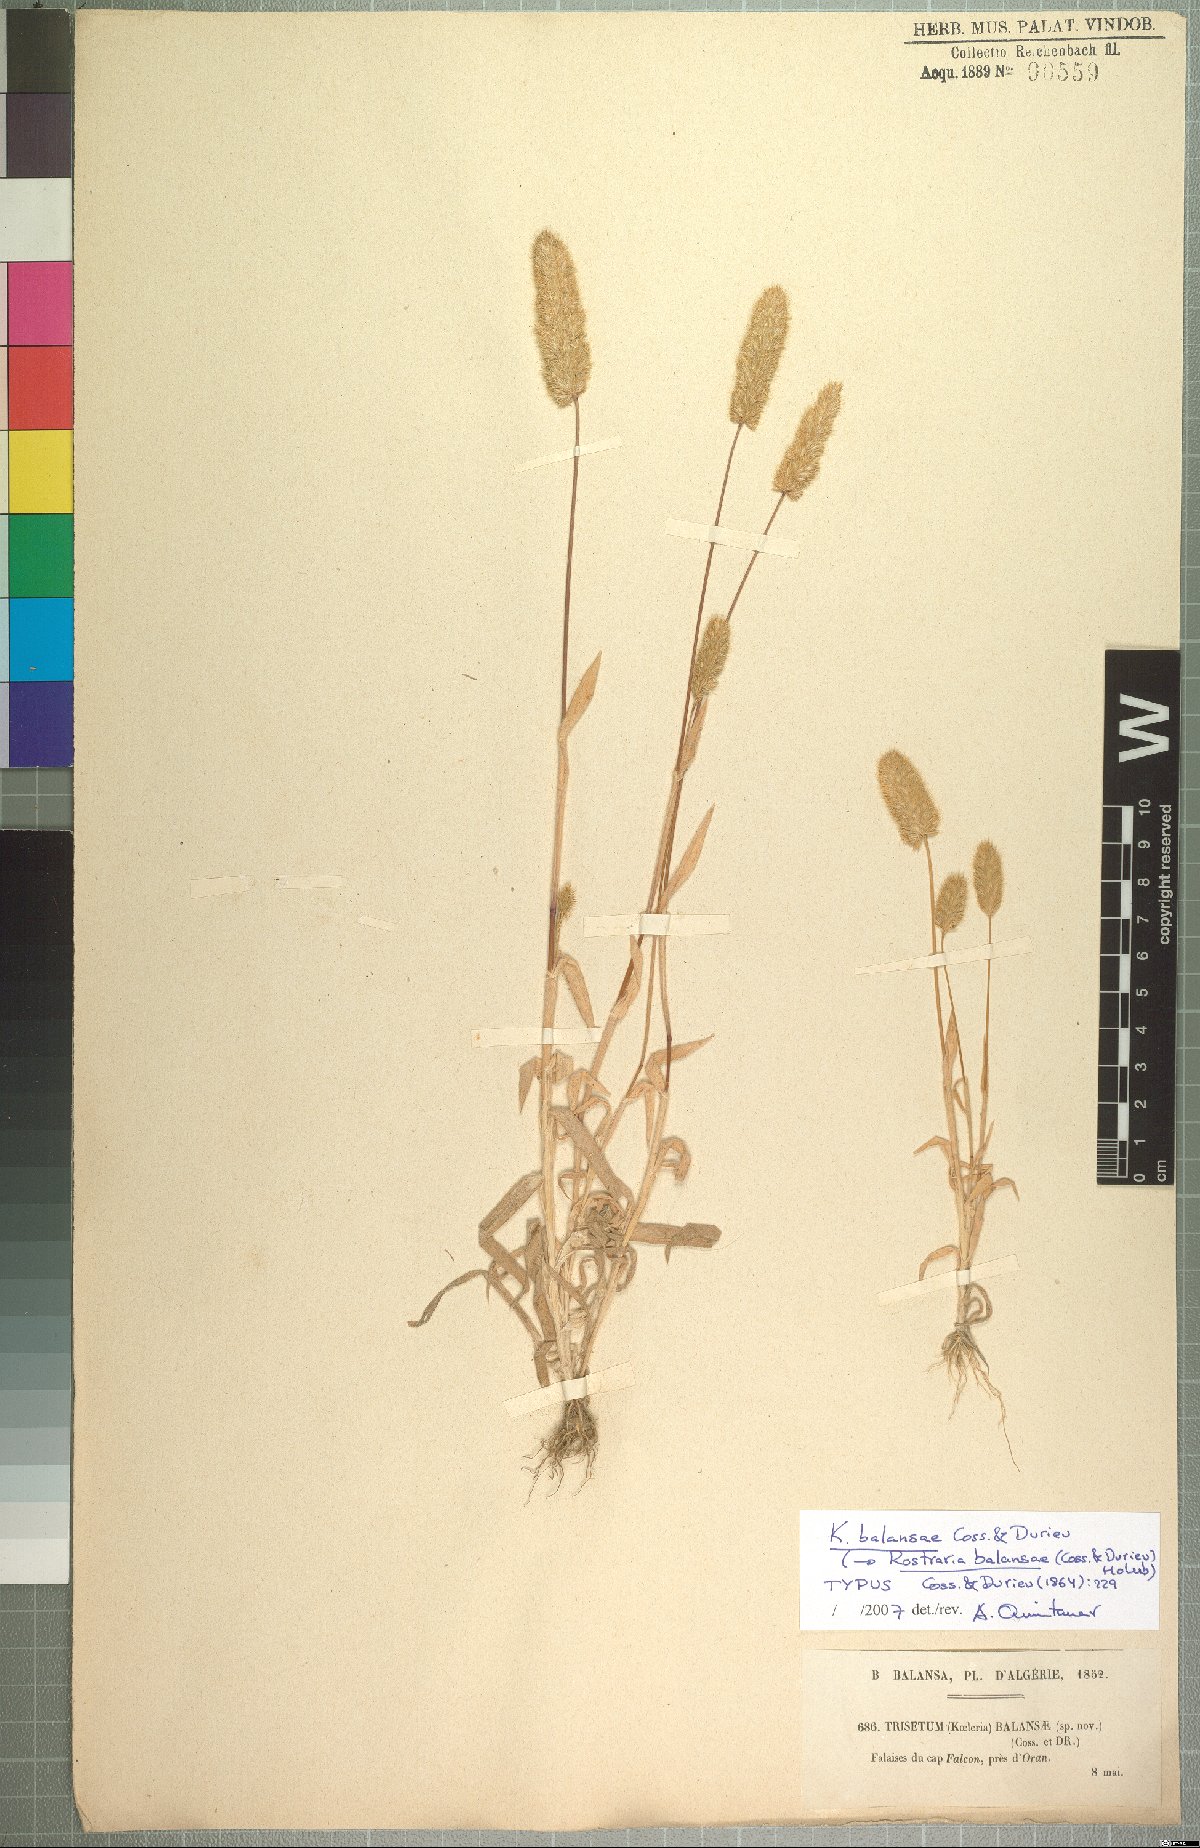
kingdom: Plantae
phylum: Tracheophyta
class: Liliopsida
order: Poales
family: Poaceae
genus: Rostraria
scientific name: Rostraria balansae
